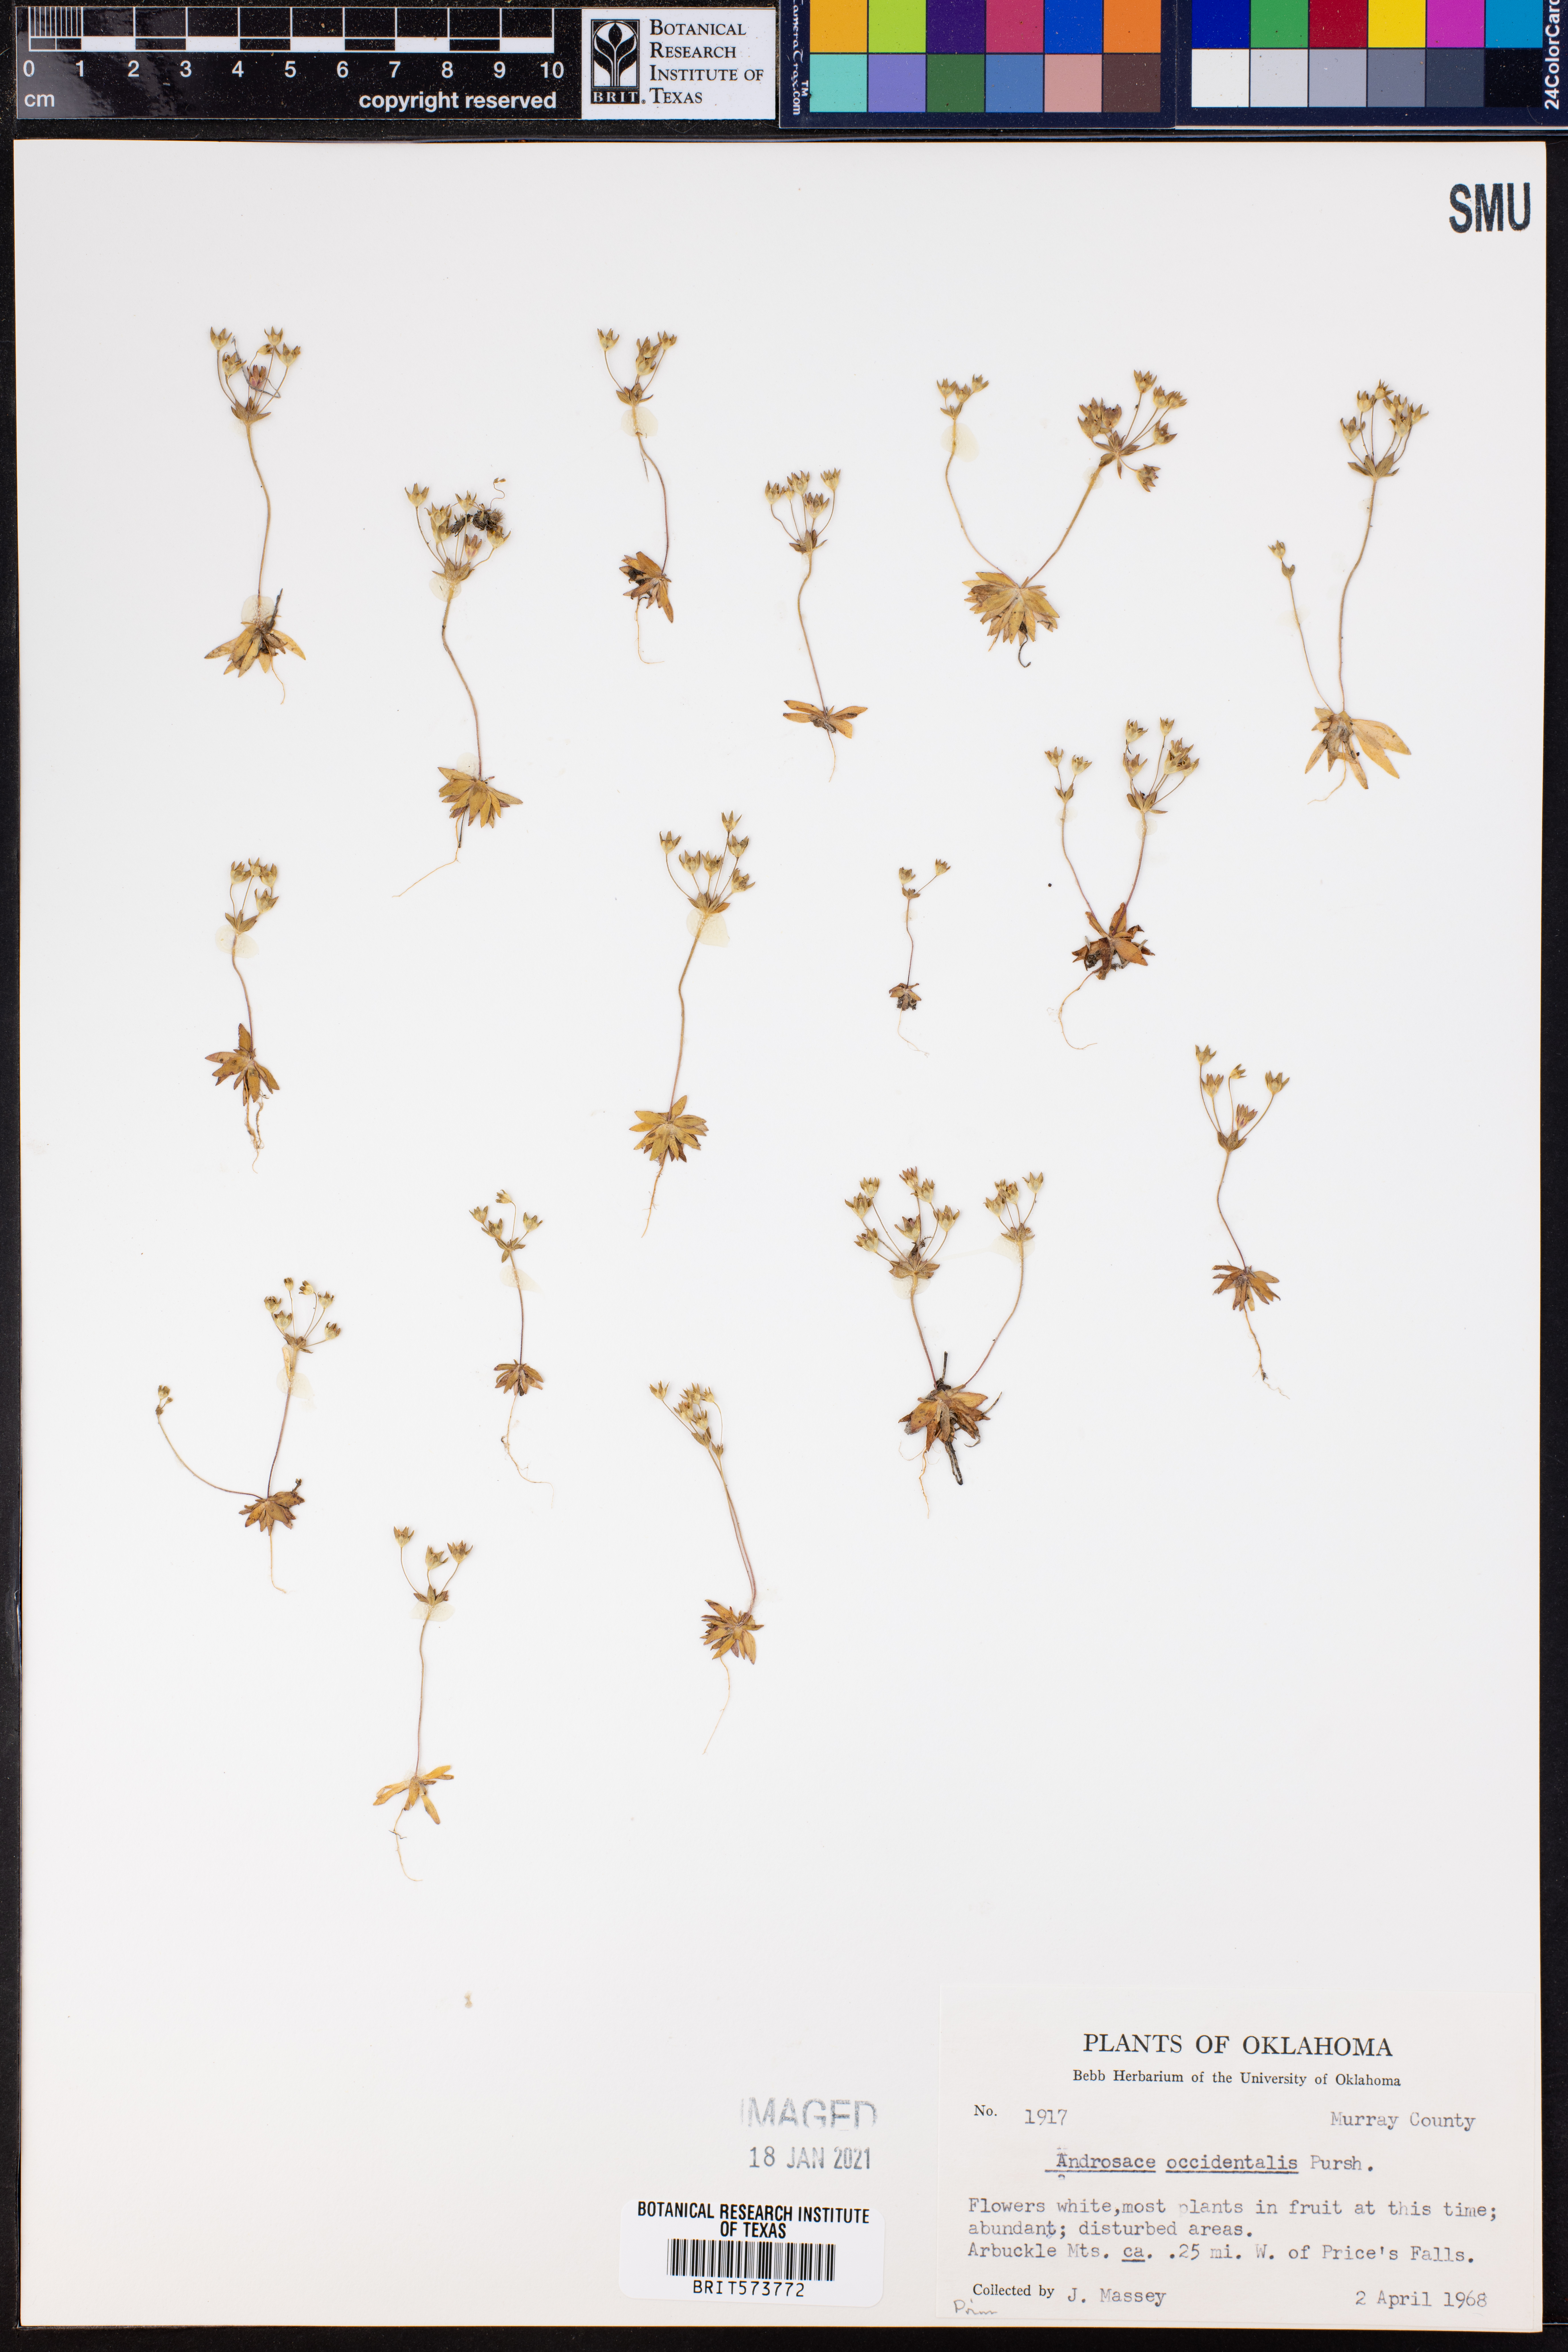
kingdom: Plantae
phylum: Tracheophyta
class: Magnoliopsida
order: Ericales
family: Primulaceae
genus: Androsace
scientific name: Androsace occidentalis
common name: West rock-jasmine
